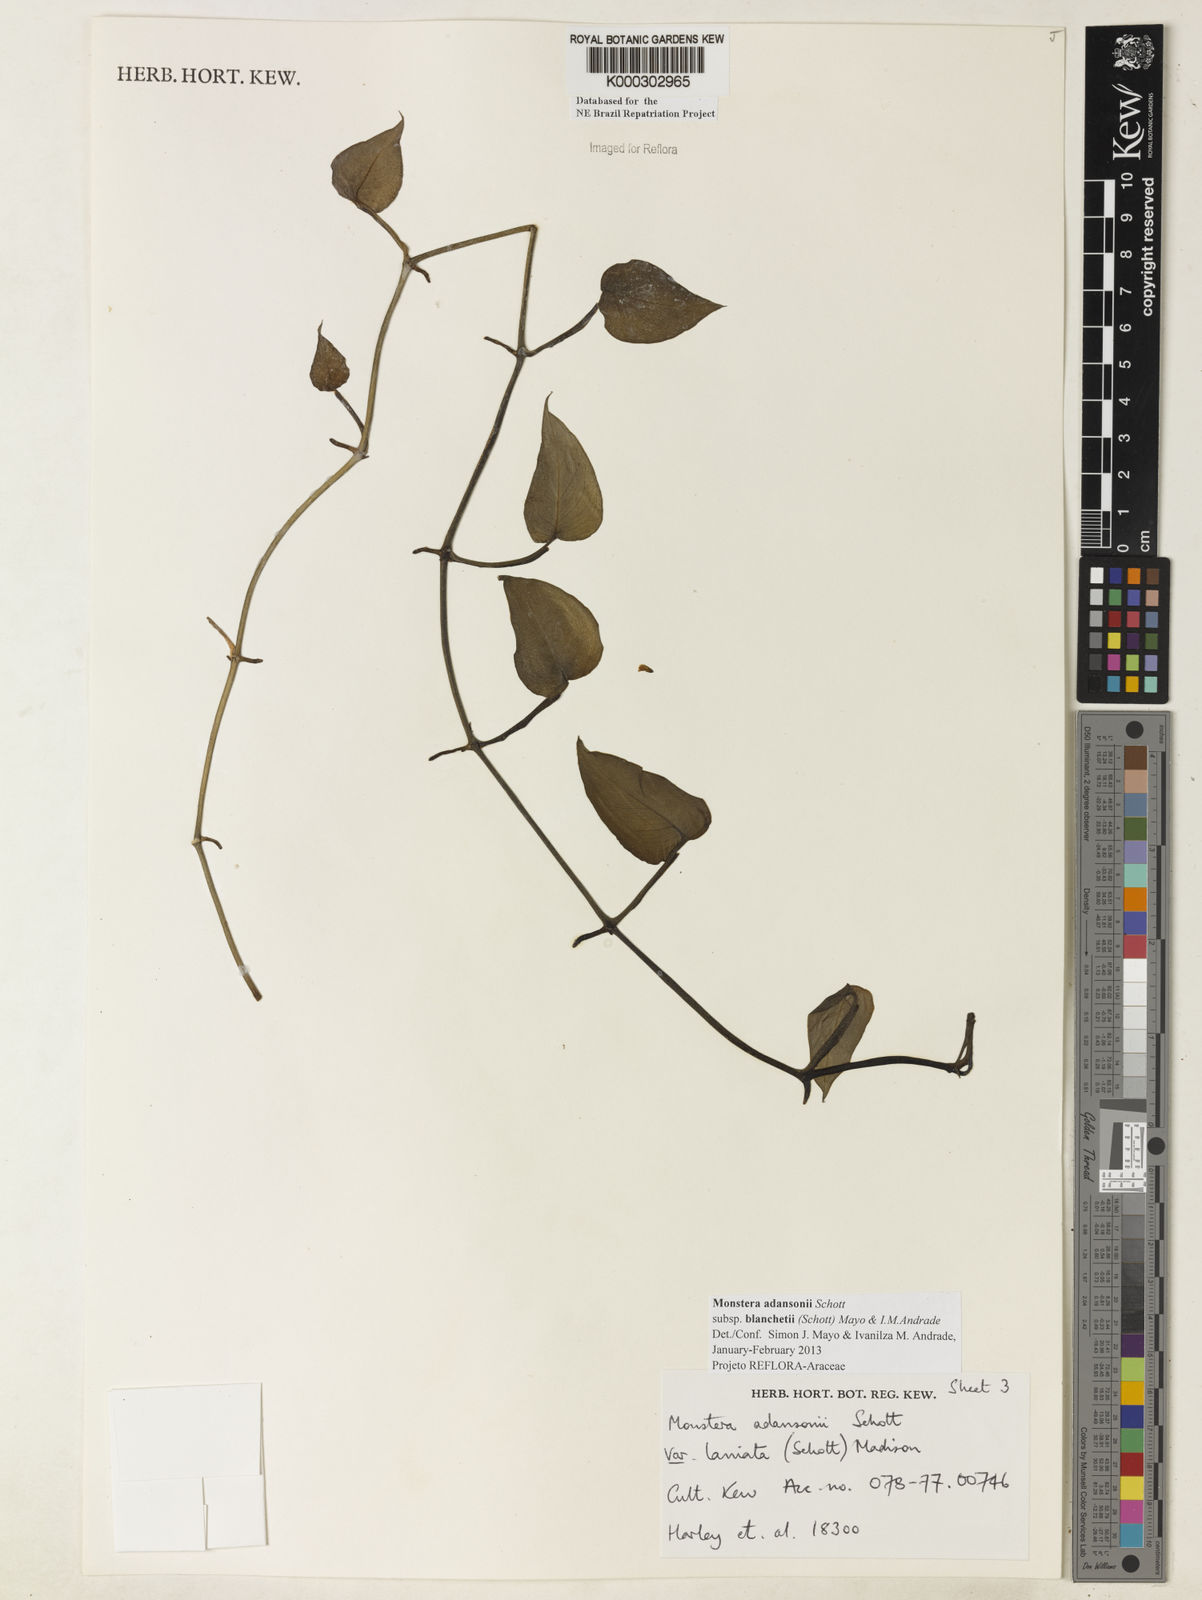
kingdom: Plantae
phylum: Tracheophyta
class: Liliopsida
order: Alismatales
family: Araceae
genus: Monstera
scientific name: Monstera adansonii
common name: Tarovine
